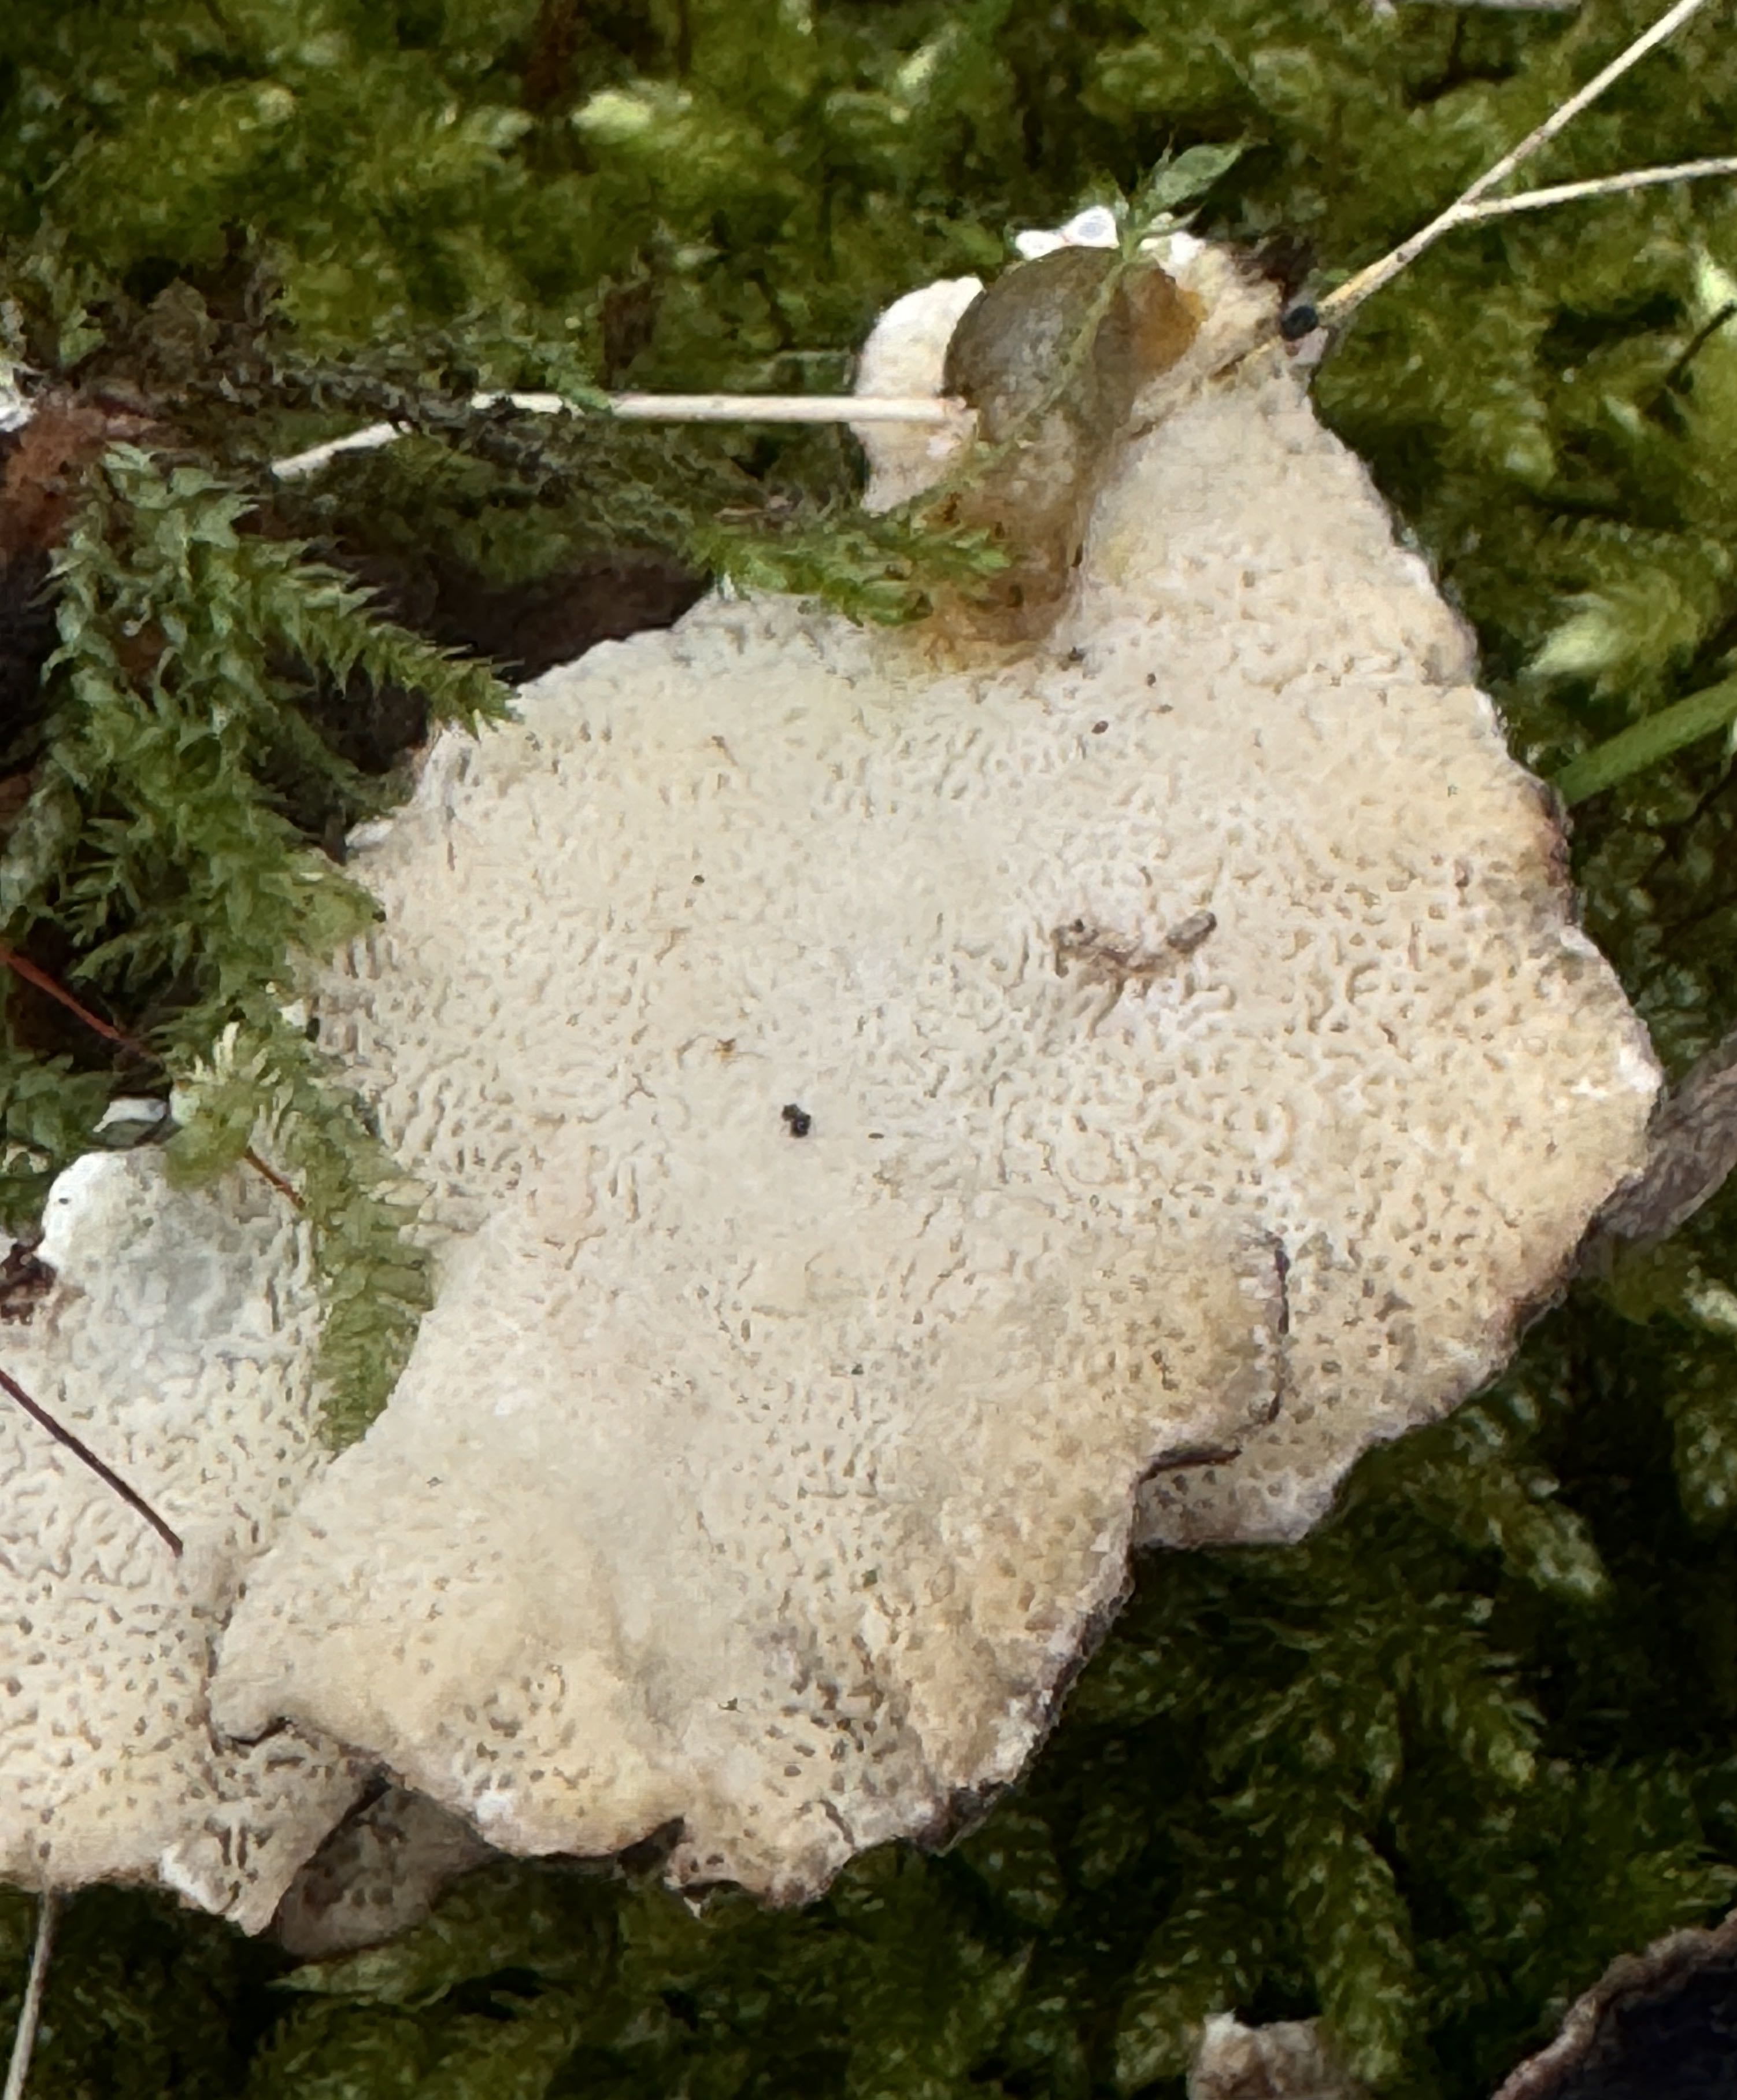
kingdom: Fungi
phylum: Basidiomycota
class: Agaricomycetes
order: Polyporales
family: Polyporaceae
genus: Trametes
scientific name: Trametes versicolor
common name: broget læderporesvamp
